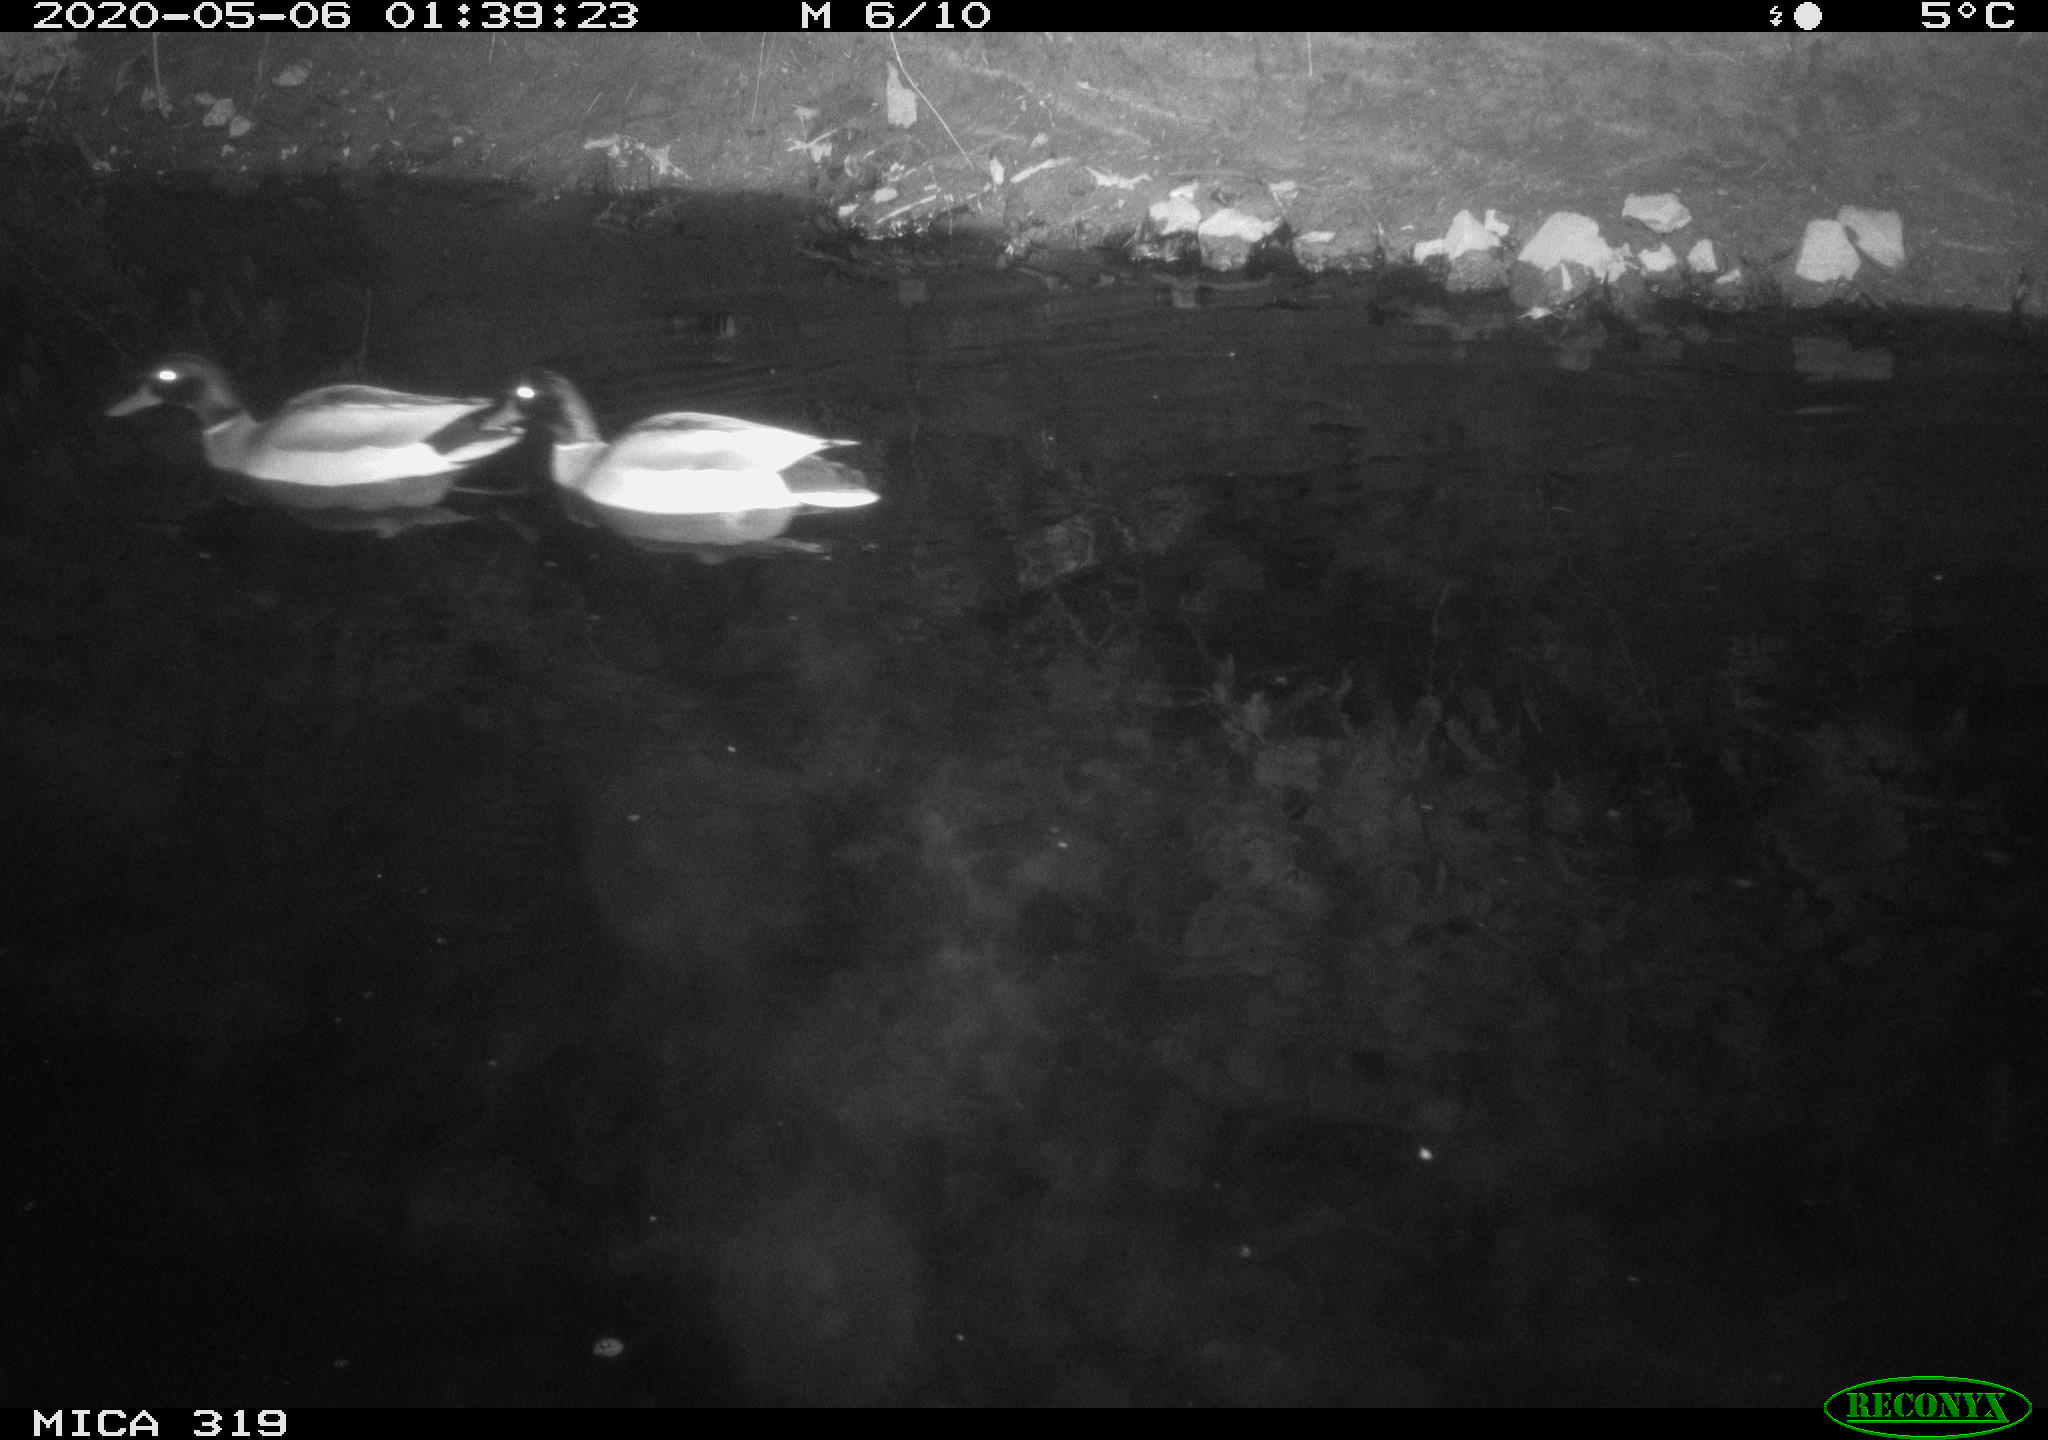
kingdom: Animalia
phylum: Chordata
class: Aves
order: Anseriformes
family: Anatidae
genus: Anas
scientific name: Anas platyrhynchos
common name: Mallard
